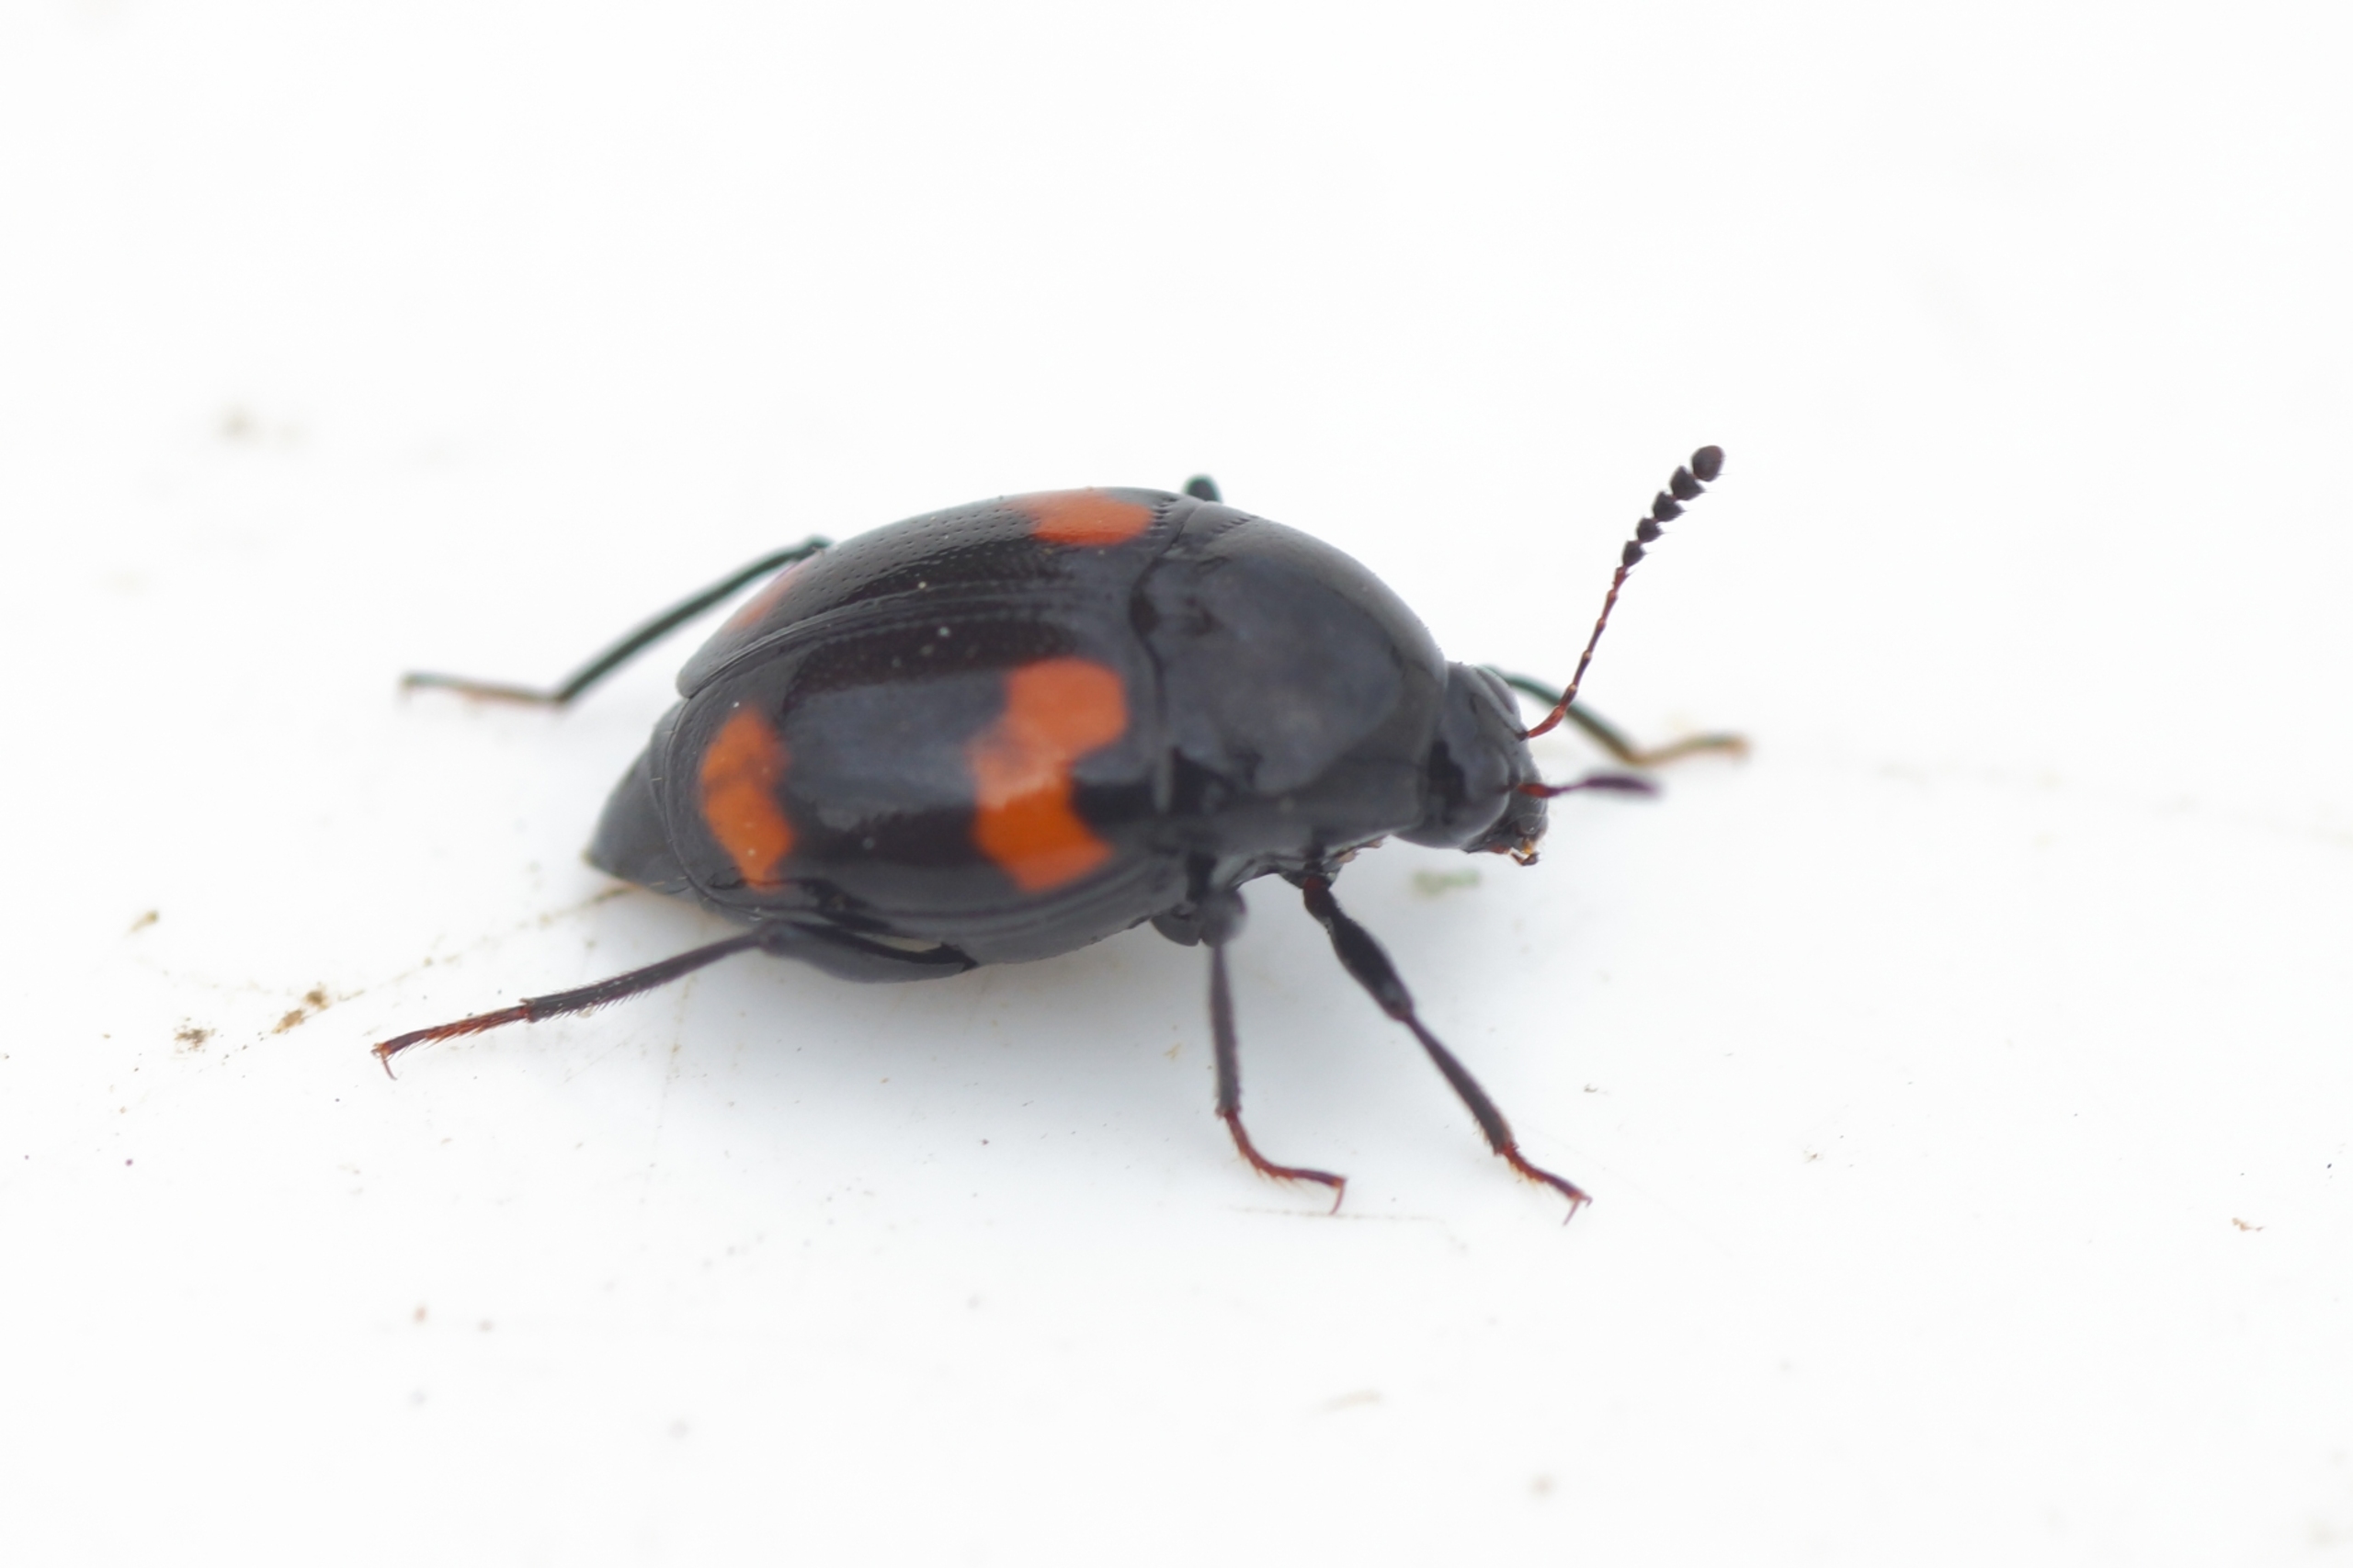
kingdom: Animalia
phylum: Arthropoda
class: Insecta
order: Coleoptera
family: Staphylinidae
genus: Scaphidium
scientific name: Scaphidium quadrimaculatum
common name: Dråberovbille
